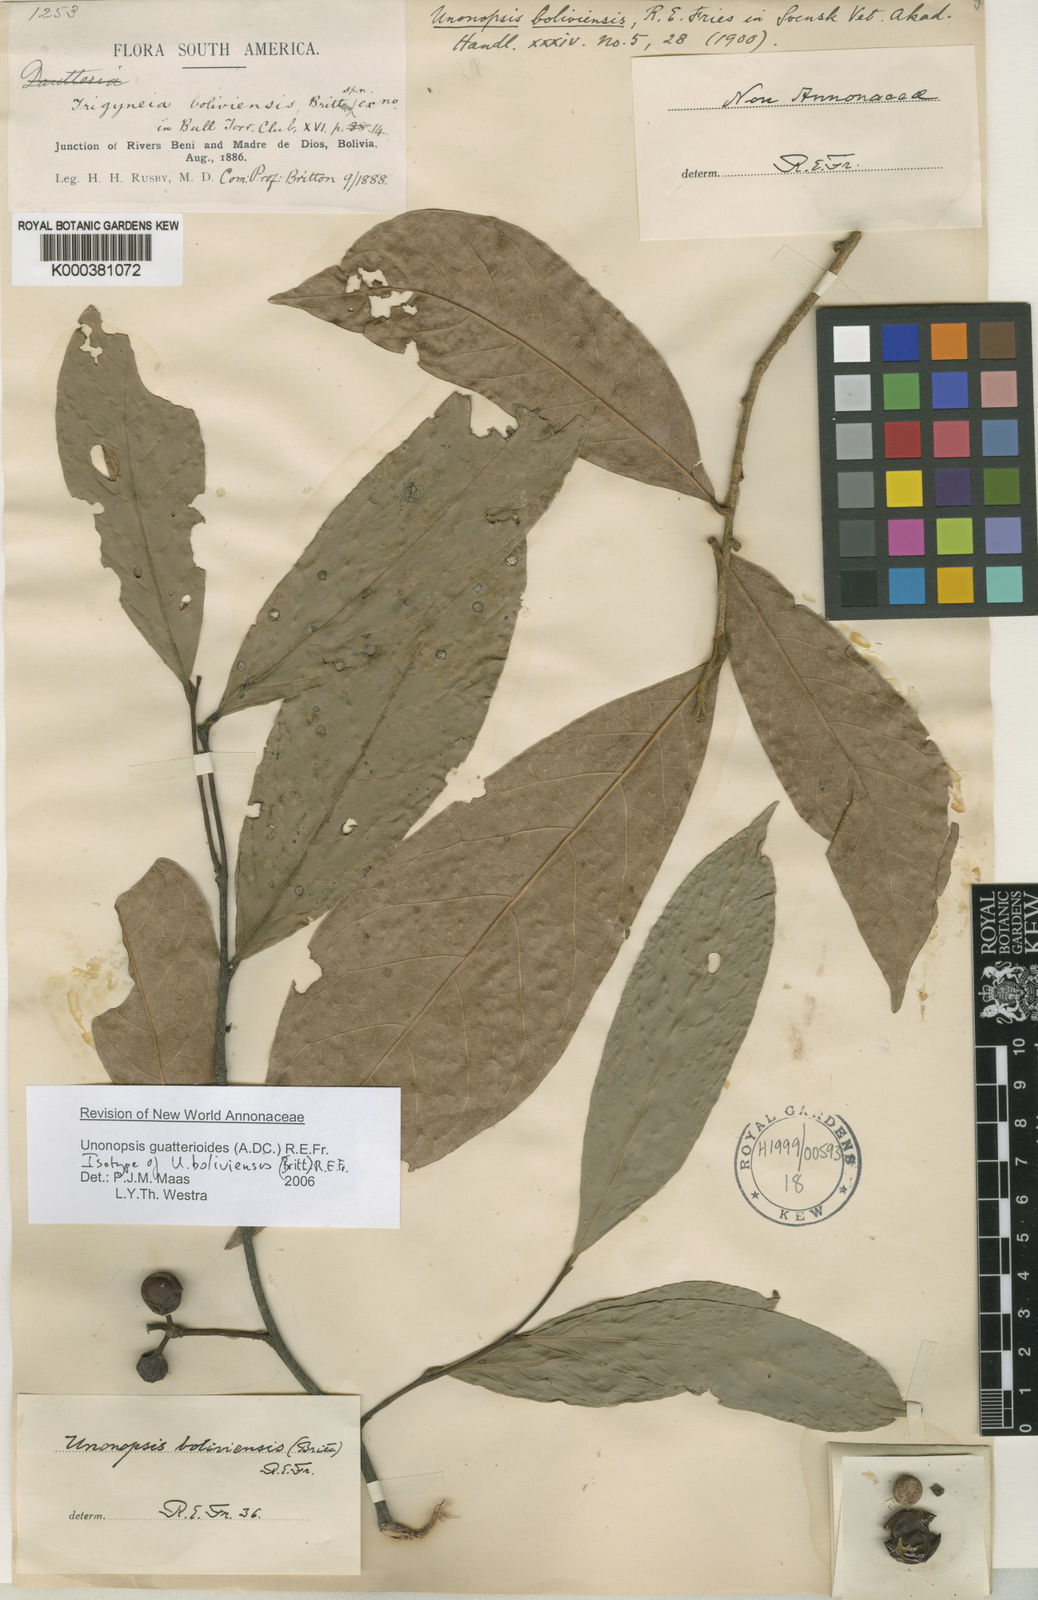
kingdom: Plantae
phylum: Tracheophyta
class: Magnoliopsida
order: Magnoliales
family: Annonaceae
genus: Unonopsis
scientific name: Unonopsis guatterioides
